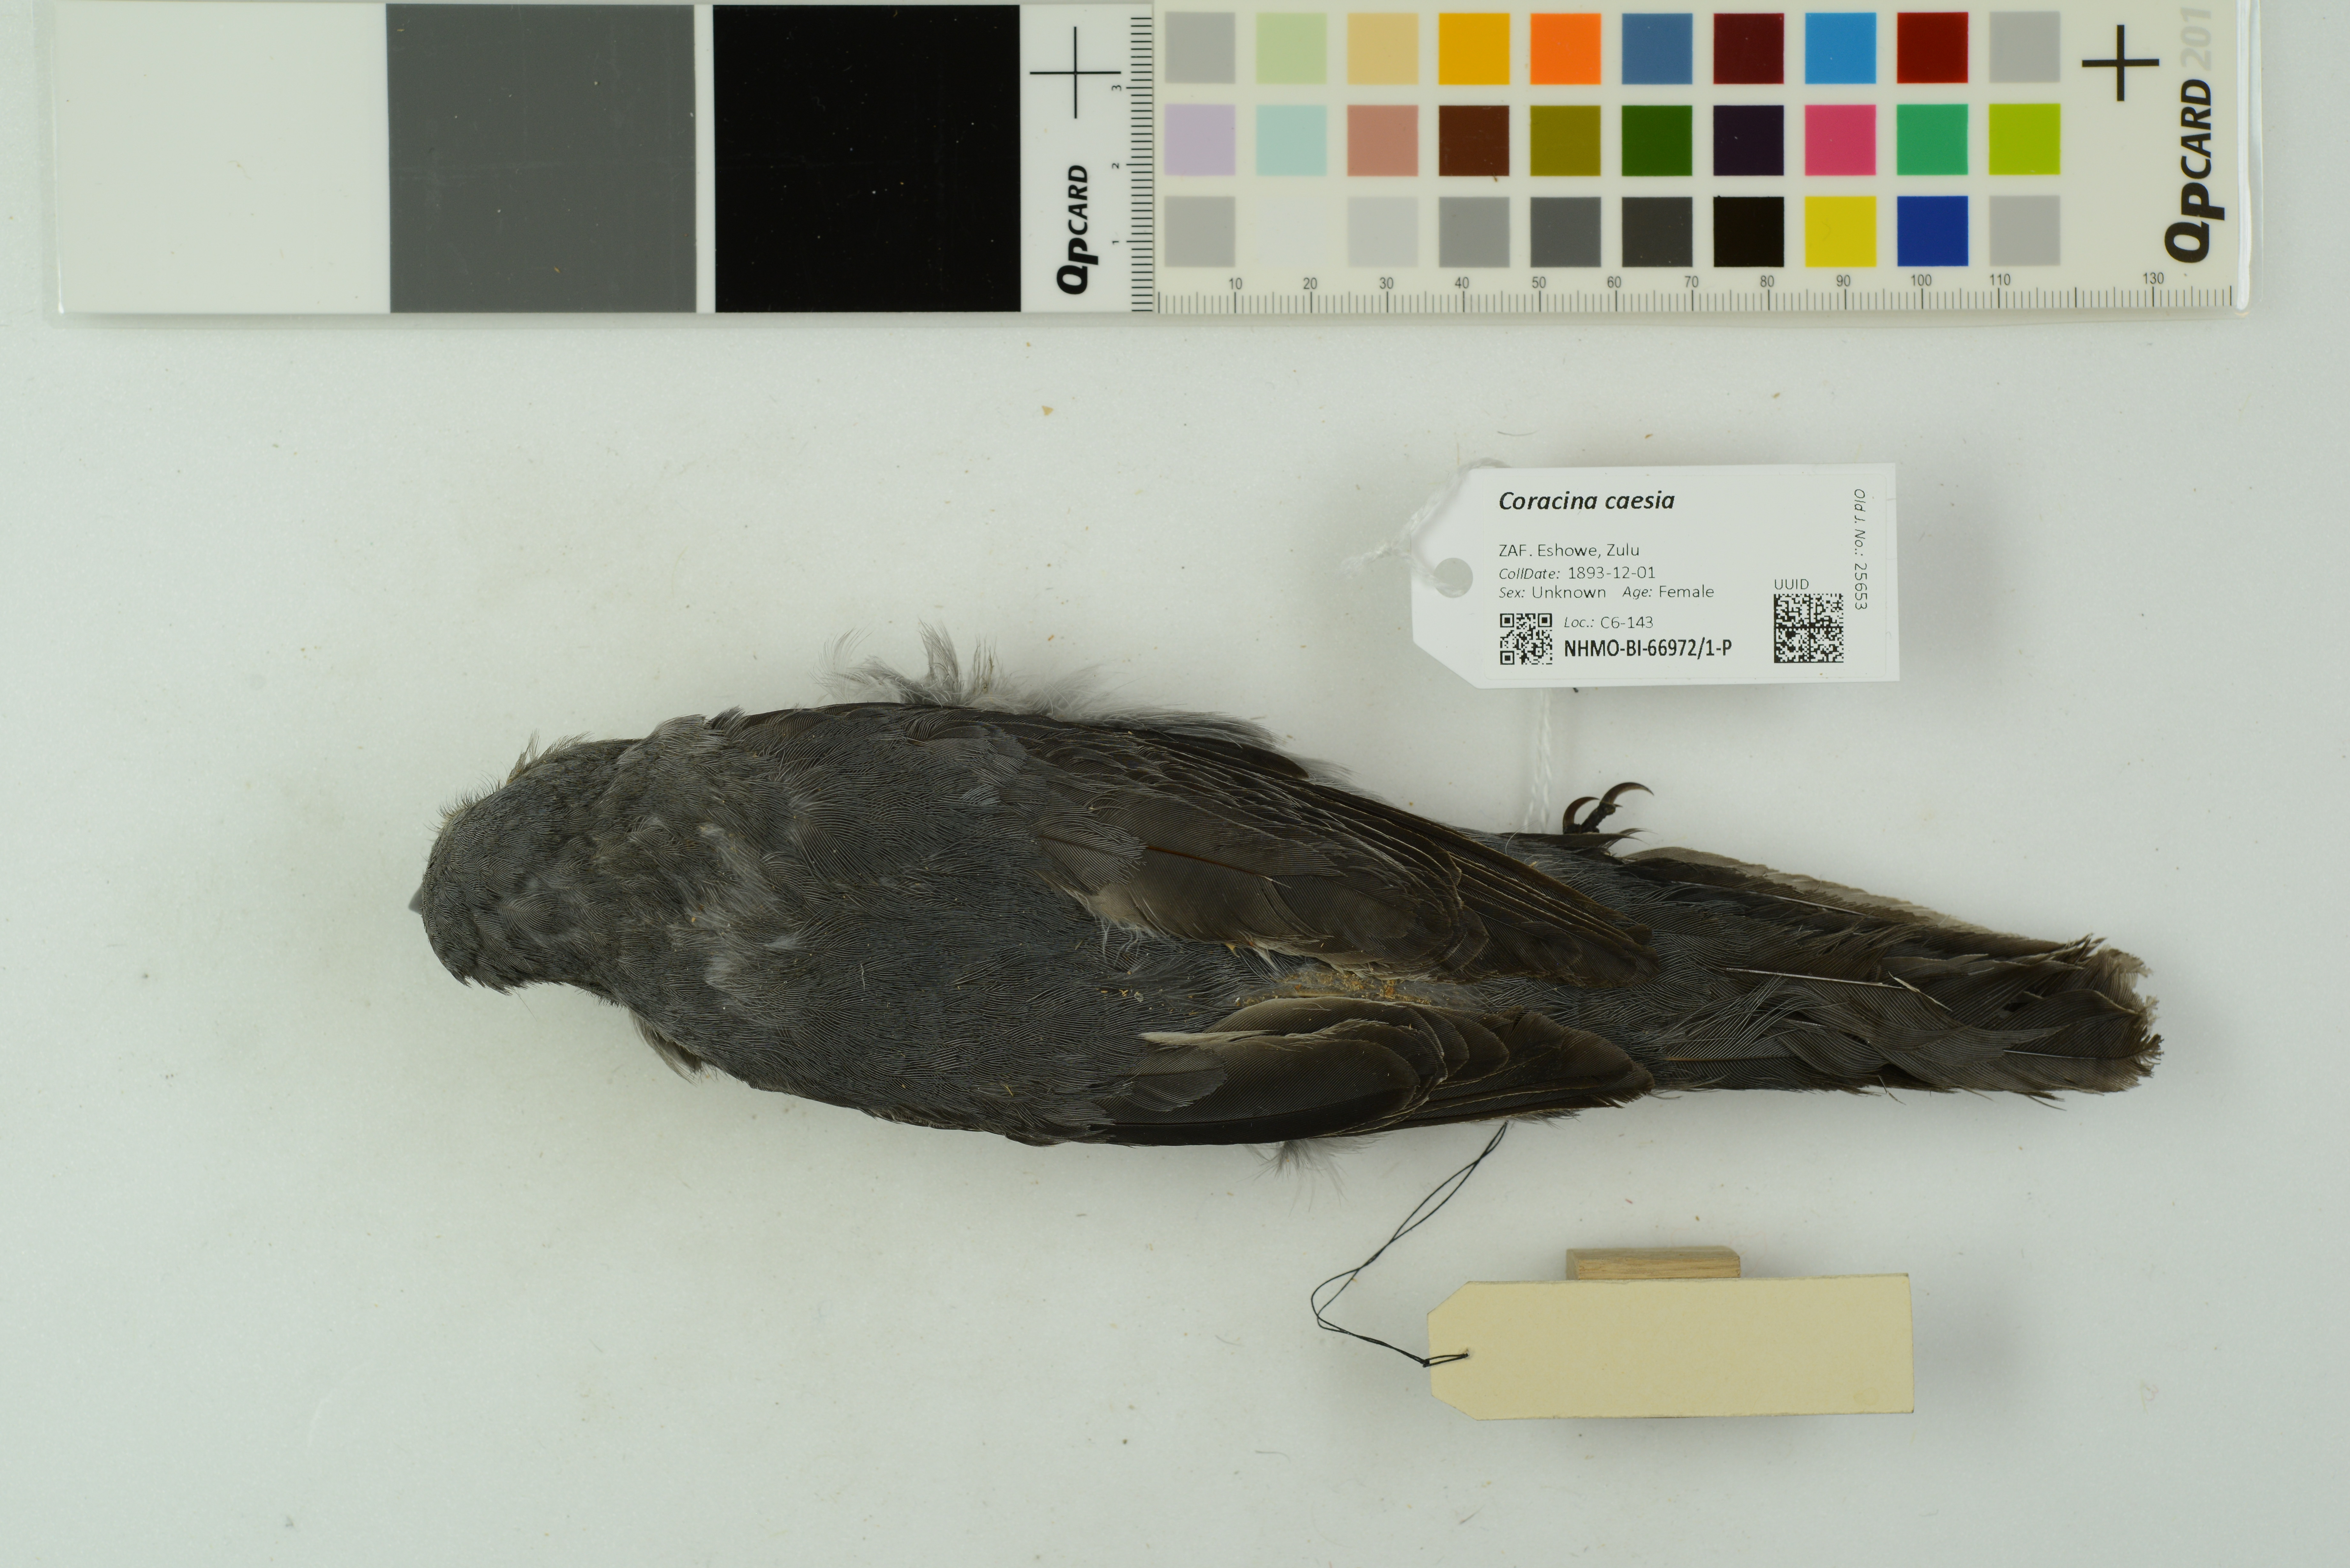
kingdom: Animalia
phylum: Chordata
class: Aves
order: Passeriformes
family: Campephagidae
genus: Coracina
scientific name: Coracina caesia
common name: Grey cuckooshrike
